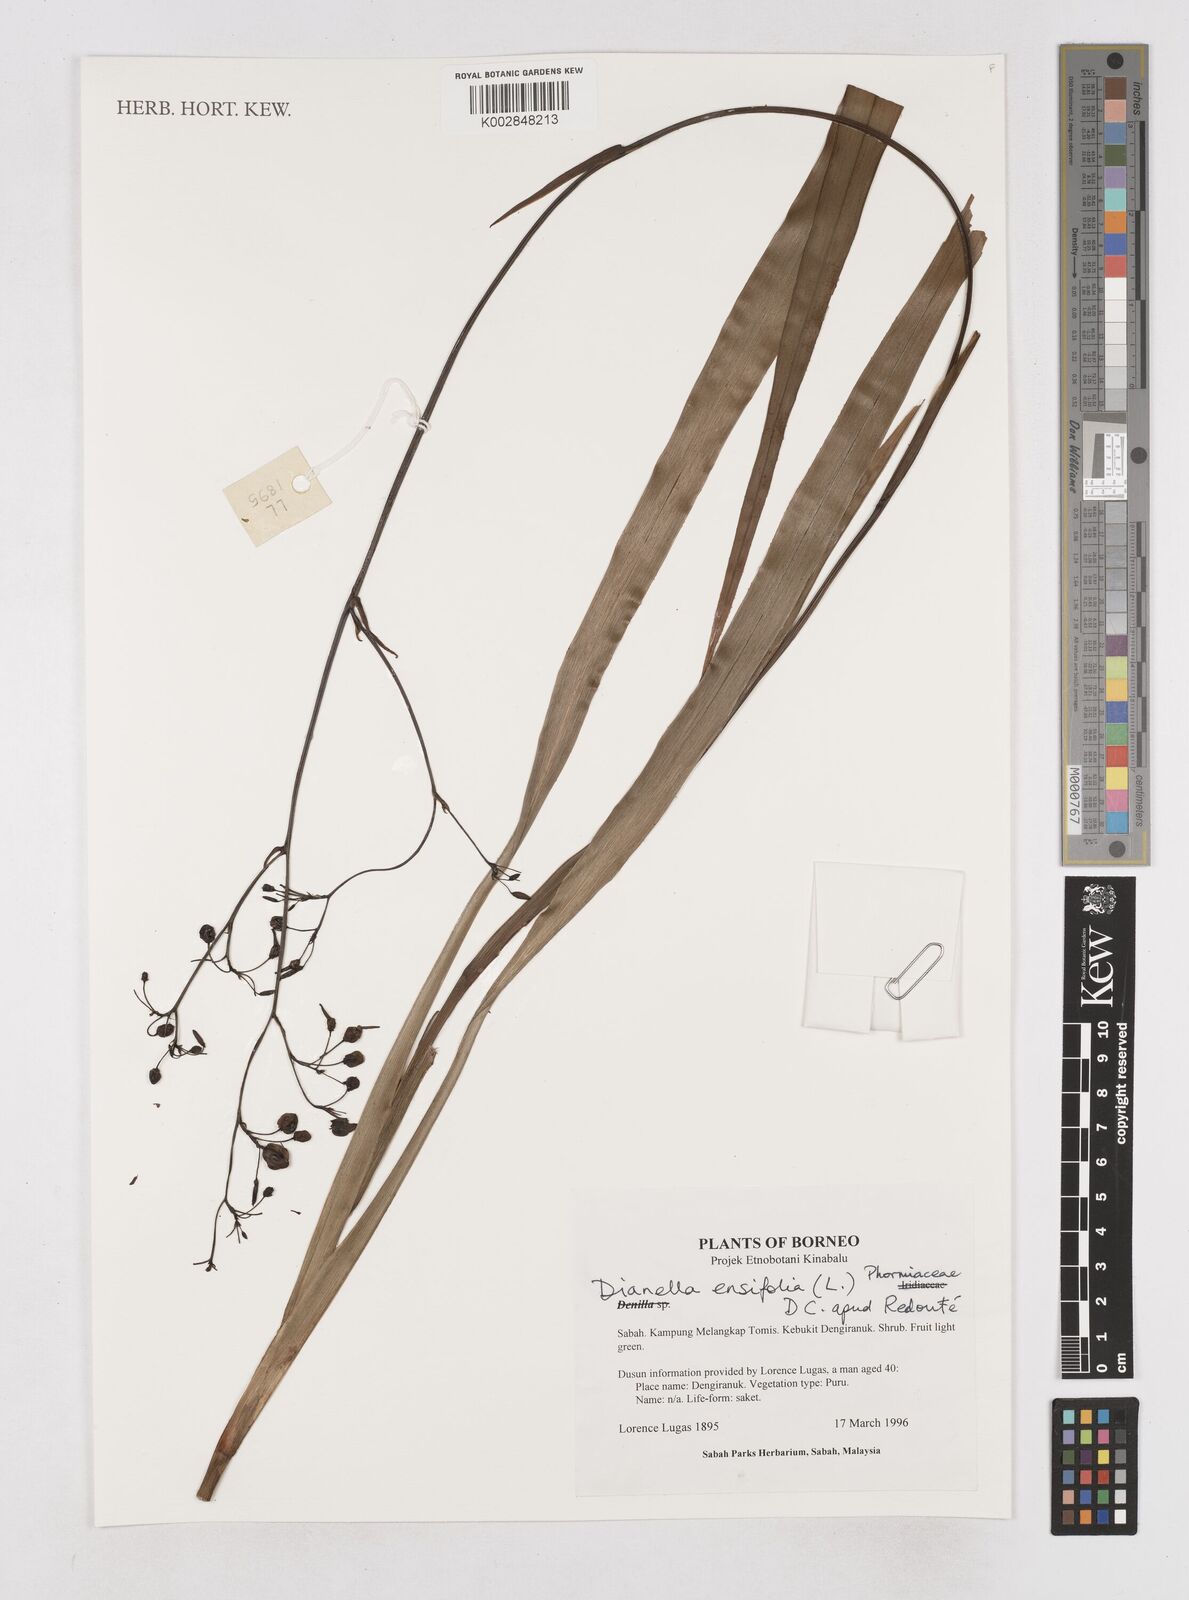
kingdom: Plantae
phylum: Tracheophyta
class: Liliopsida
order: Asparagales
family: Asphodelaceae
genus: Dianella
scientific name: Dianella ensifolia
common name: New zealand lilyplant
